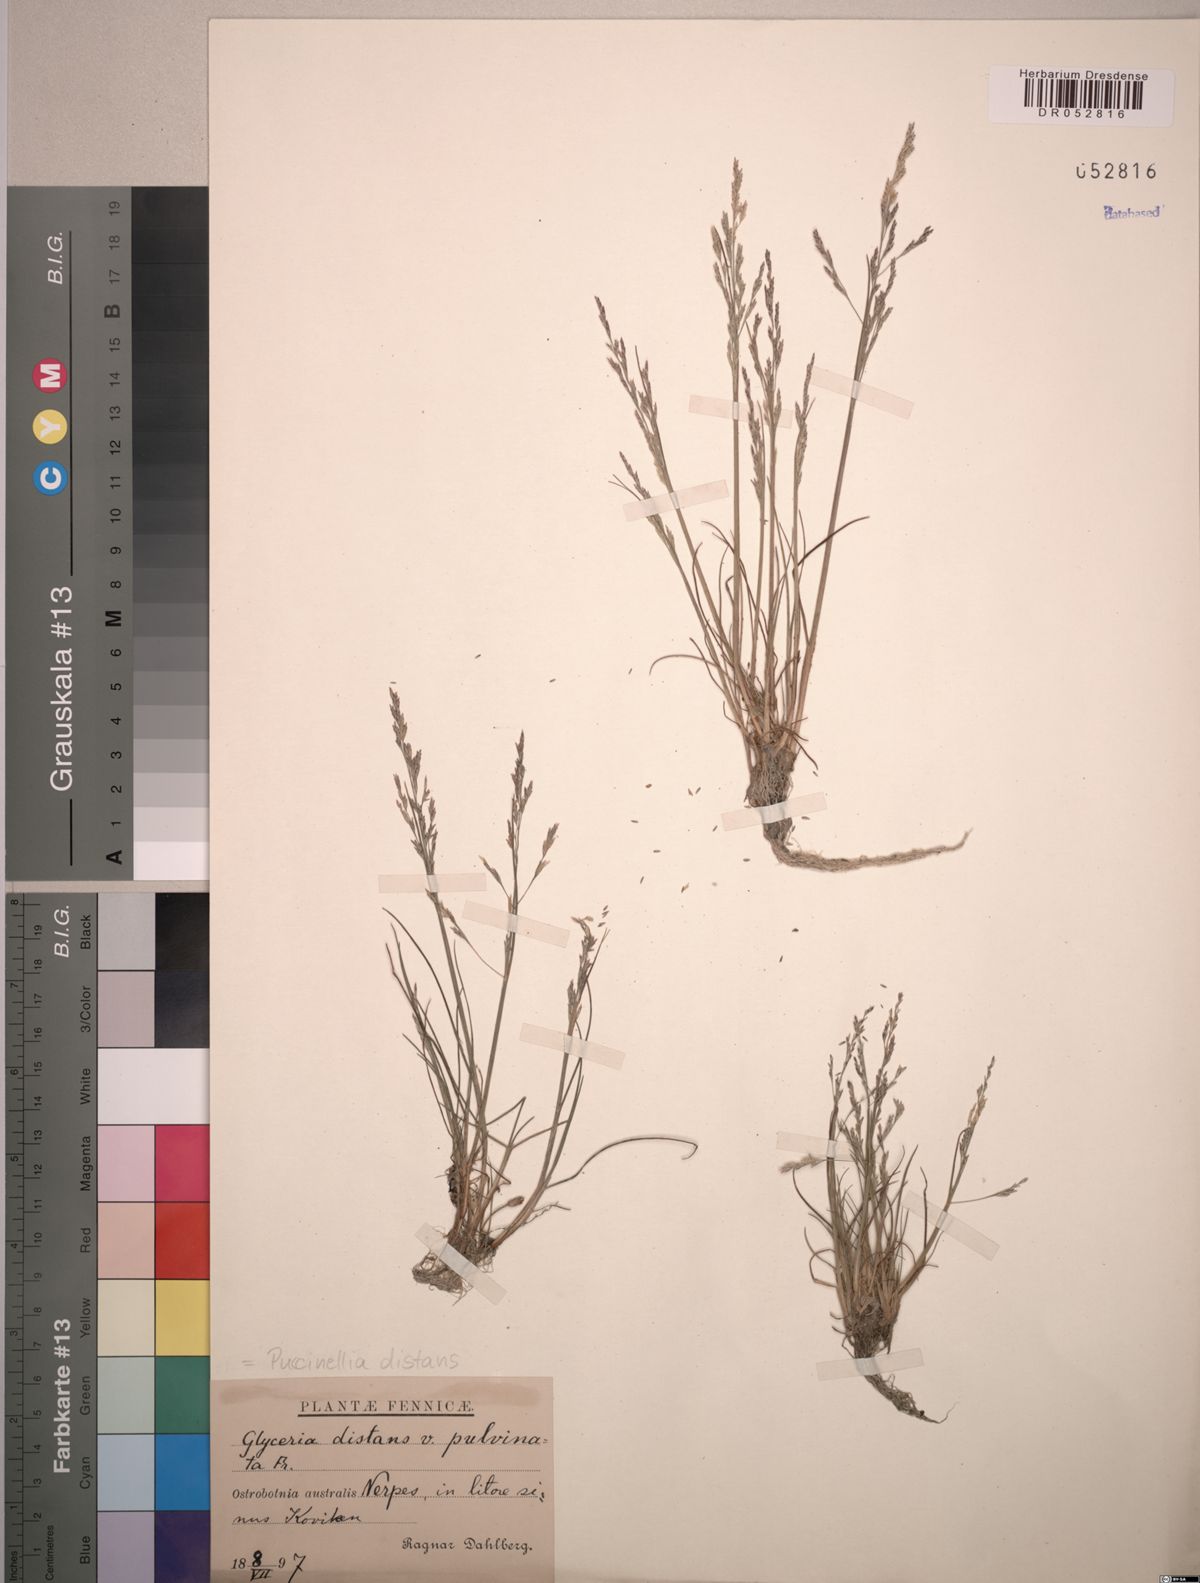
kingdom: Plantae
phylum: Tracheophyta
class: Liliopsida
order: Poales
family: Poaceae
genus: Puccinellia
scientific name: Puccinellia distans
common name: Weeping alkaligrass
